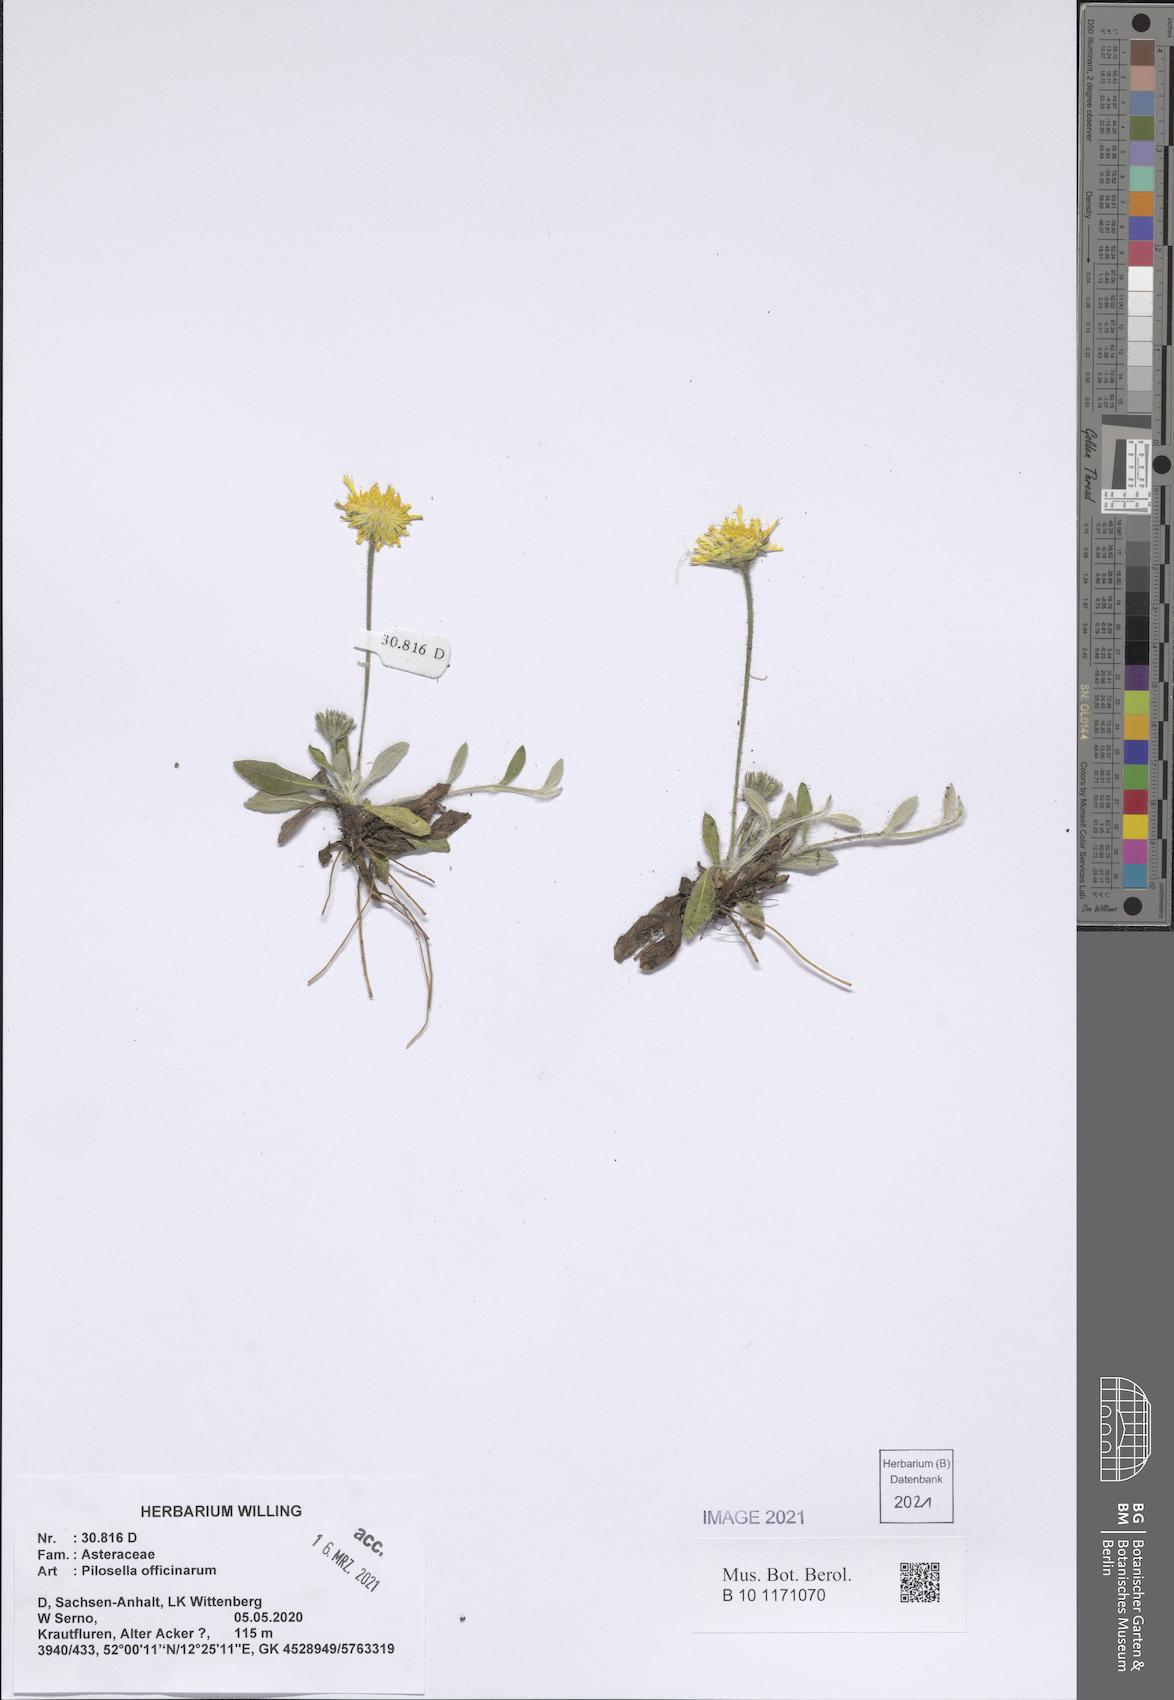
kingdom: Plantae
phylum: Tracheophyta
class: Magnoliopsida
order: Asterales
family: Asteraceae
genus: Pilosella
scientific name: Pilosella officinarum
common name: Mouse-ear hawkweed
